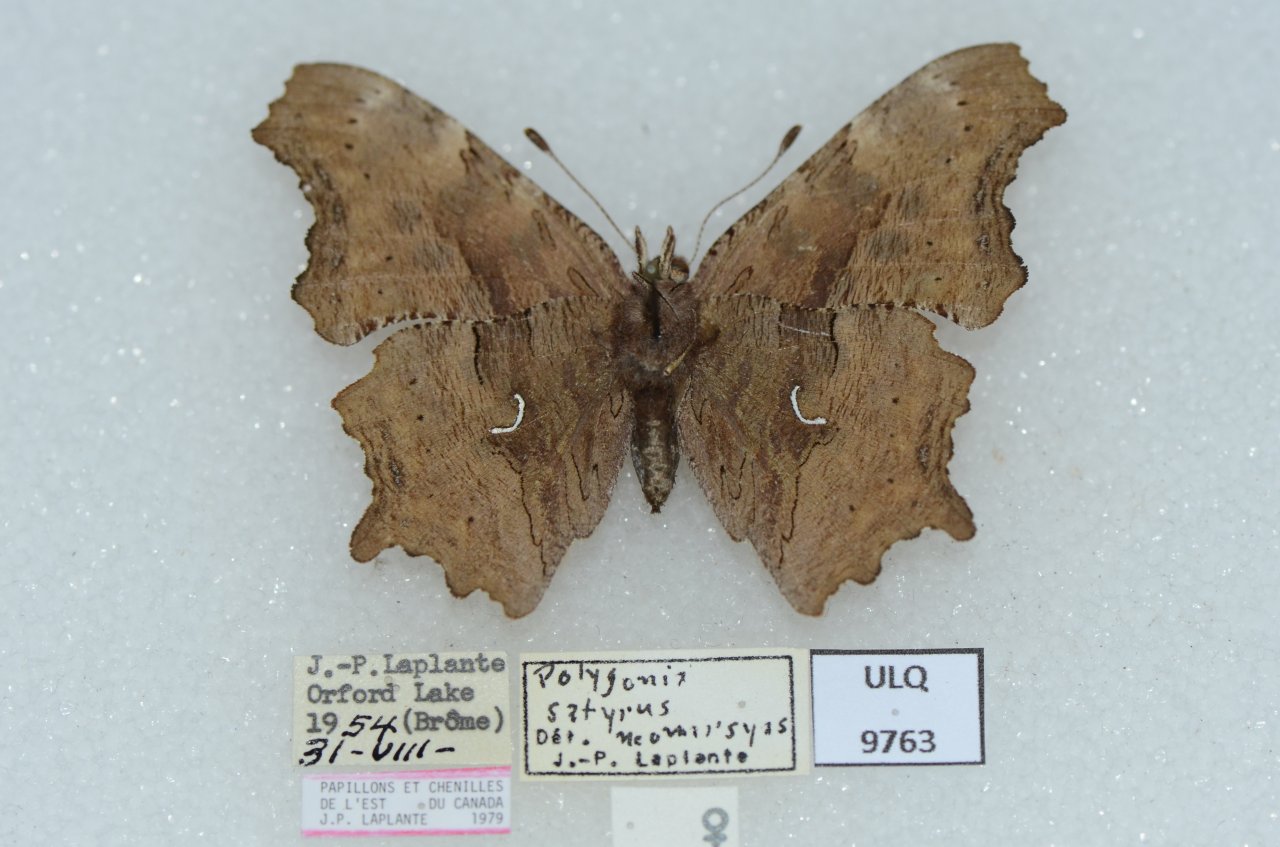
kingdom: Animalia
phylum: Arthropoda
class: Insecta
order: Lepidoptera
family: Nymphalidae
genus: Polygonia
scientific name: Polygonia satyrus
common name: Satyr Comma
